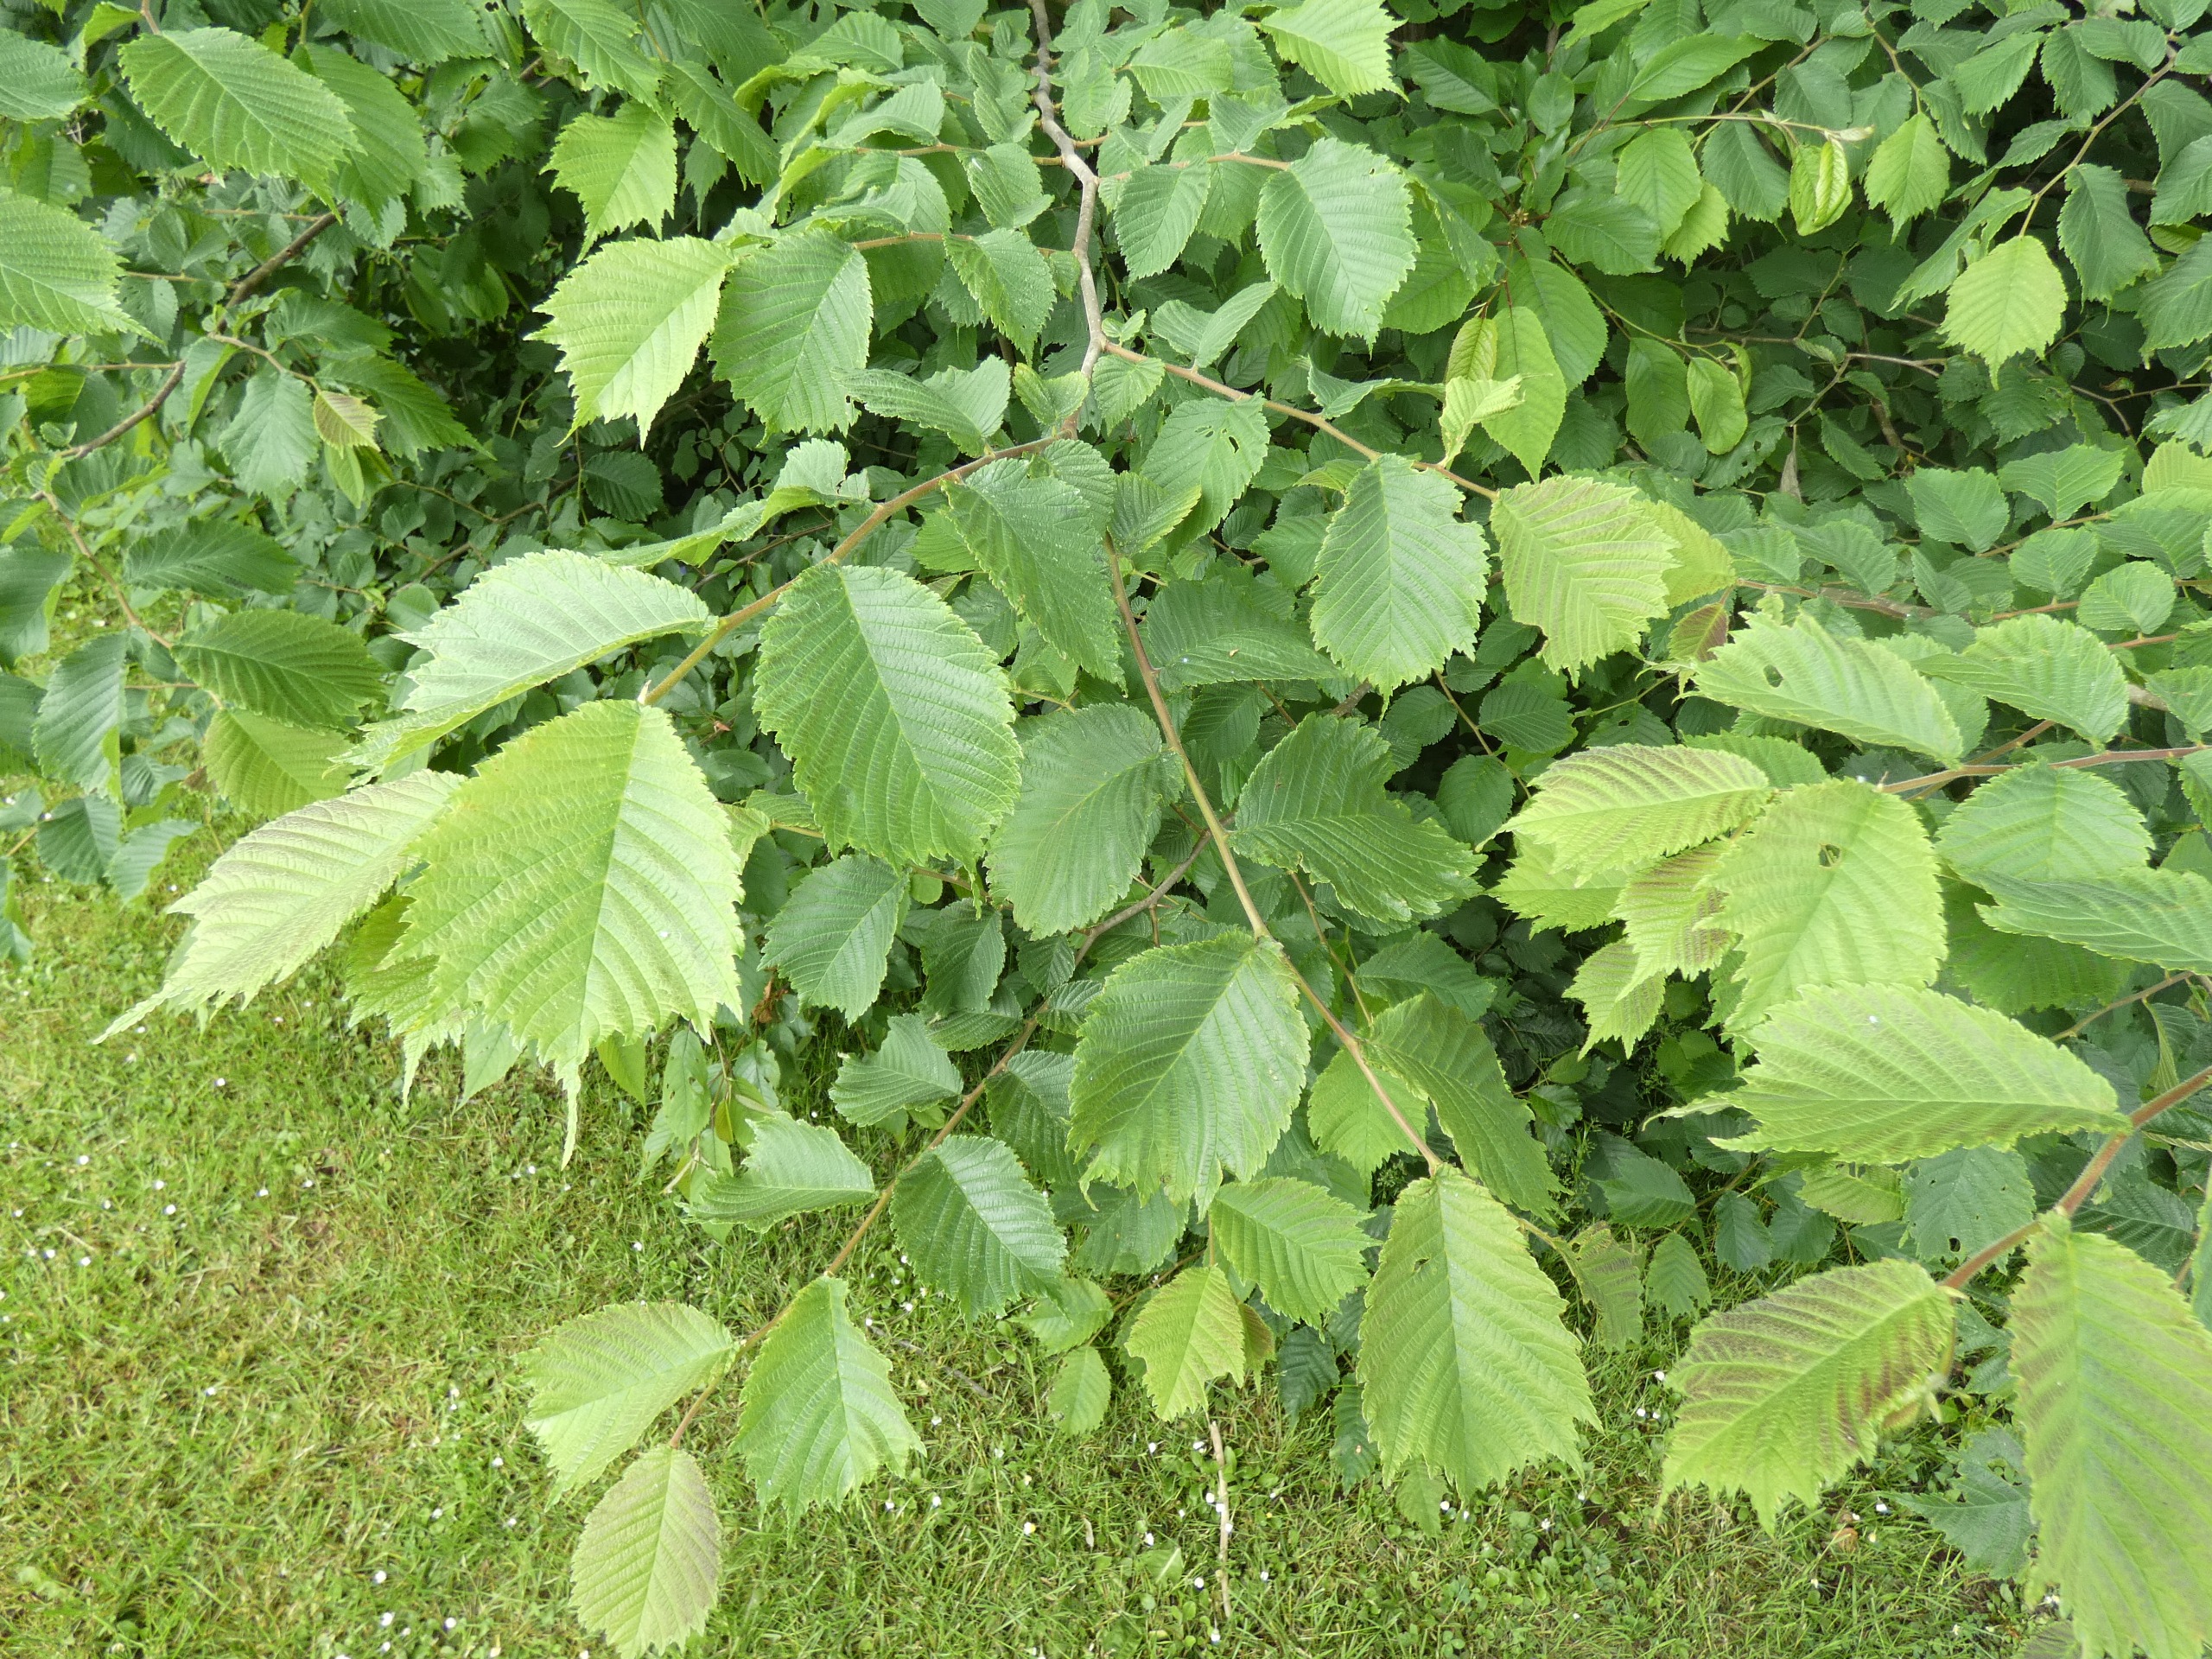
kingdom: Plantae
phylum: Tracheophyta
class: Magnoliopsida
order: Rosales
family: Ulmaceae
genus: Ulmus
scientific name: Ulmus glabra
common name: Skov-elm/storbladet elm
